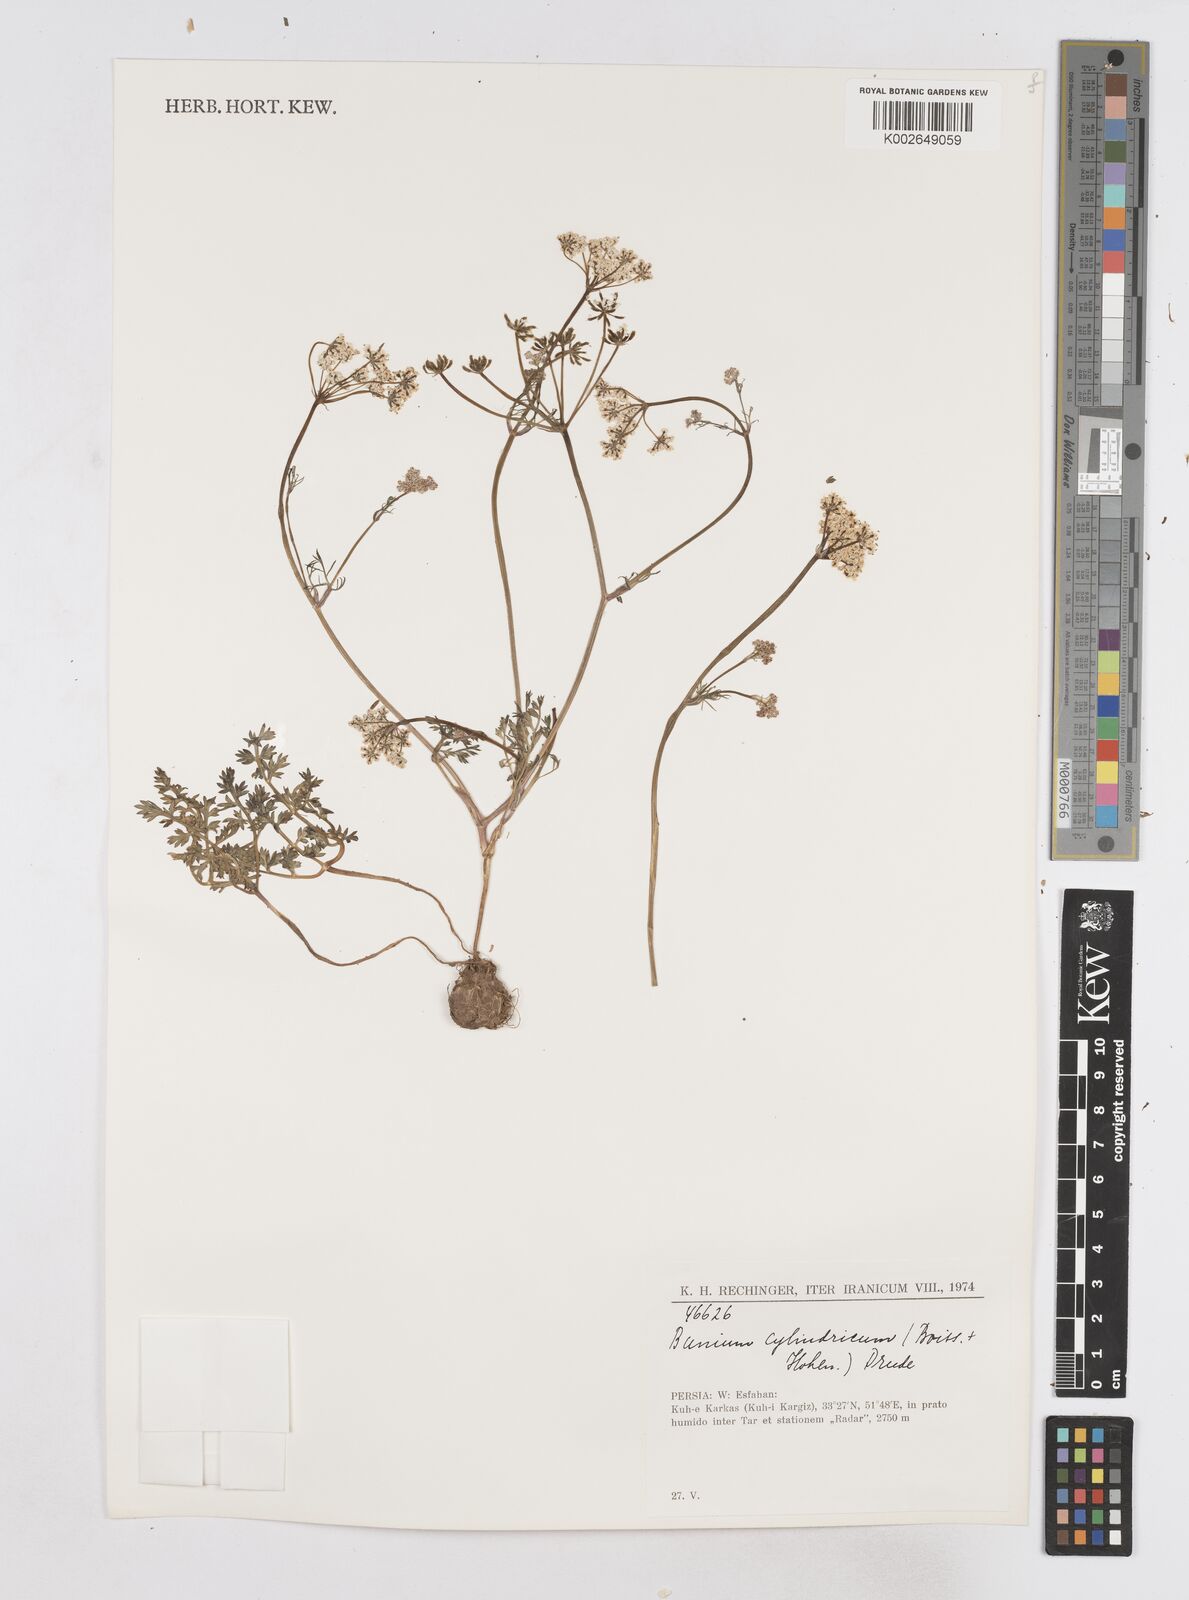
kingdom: Plantae
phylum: Tracheophyta
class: Magnoliopsida
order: Apiales
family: Apiaceae
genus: Elwendia
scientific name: Elwendia cylindrica
